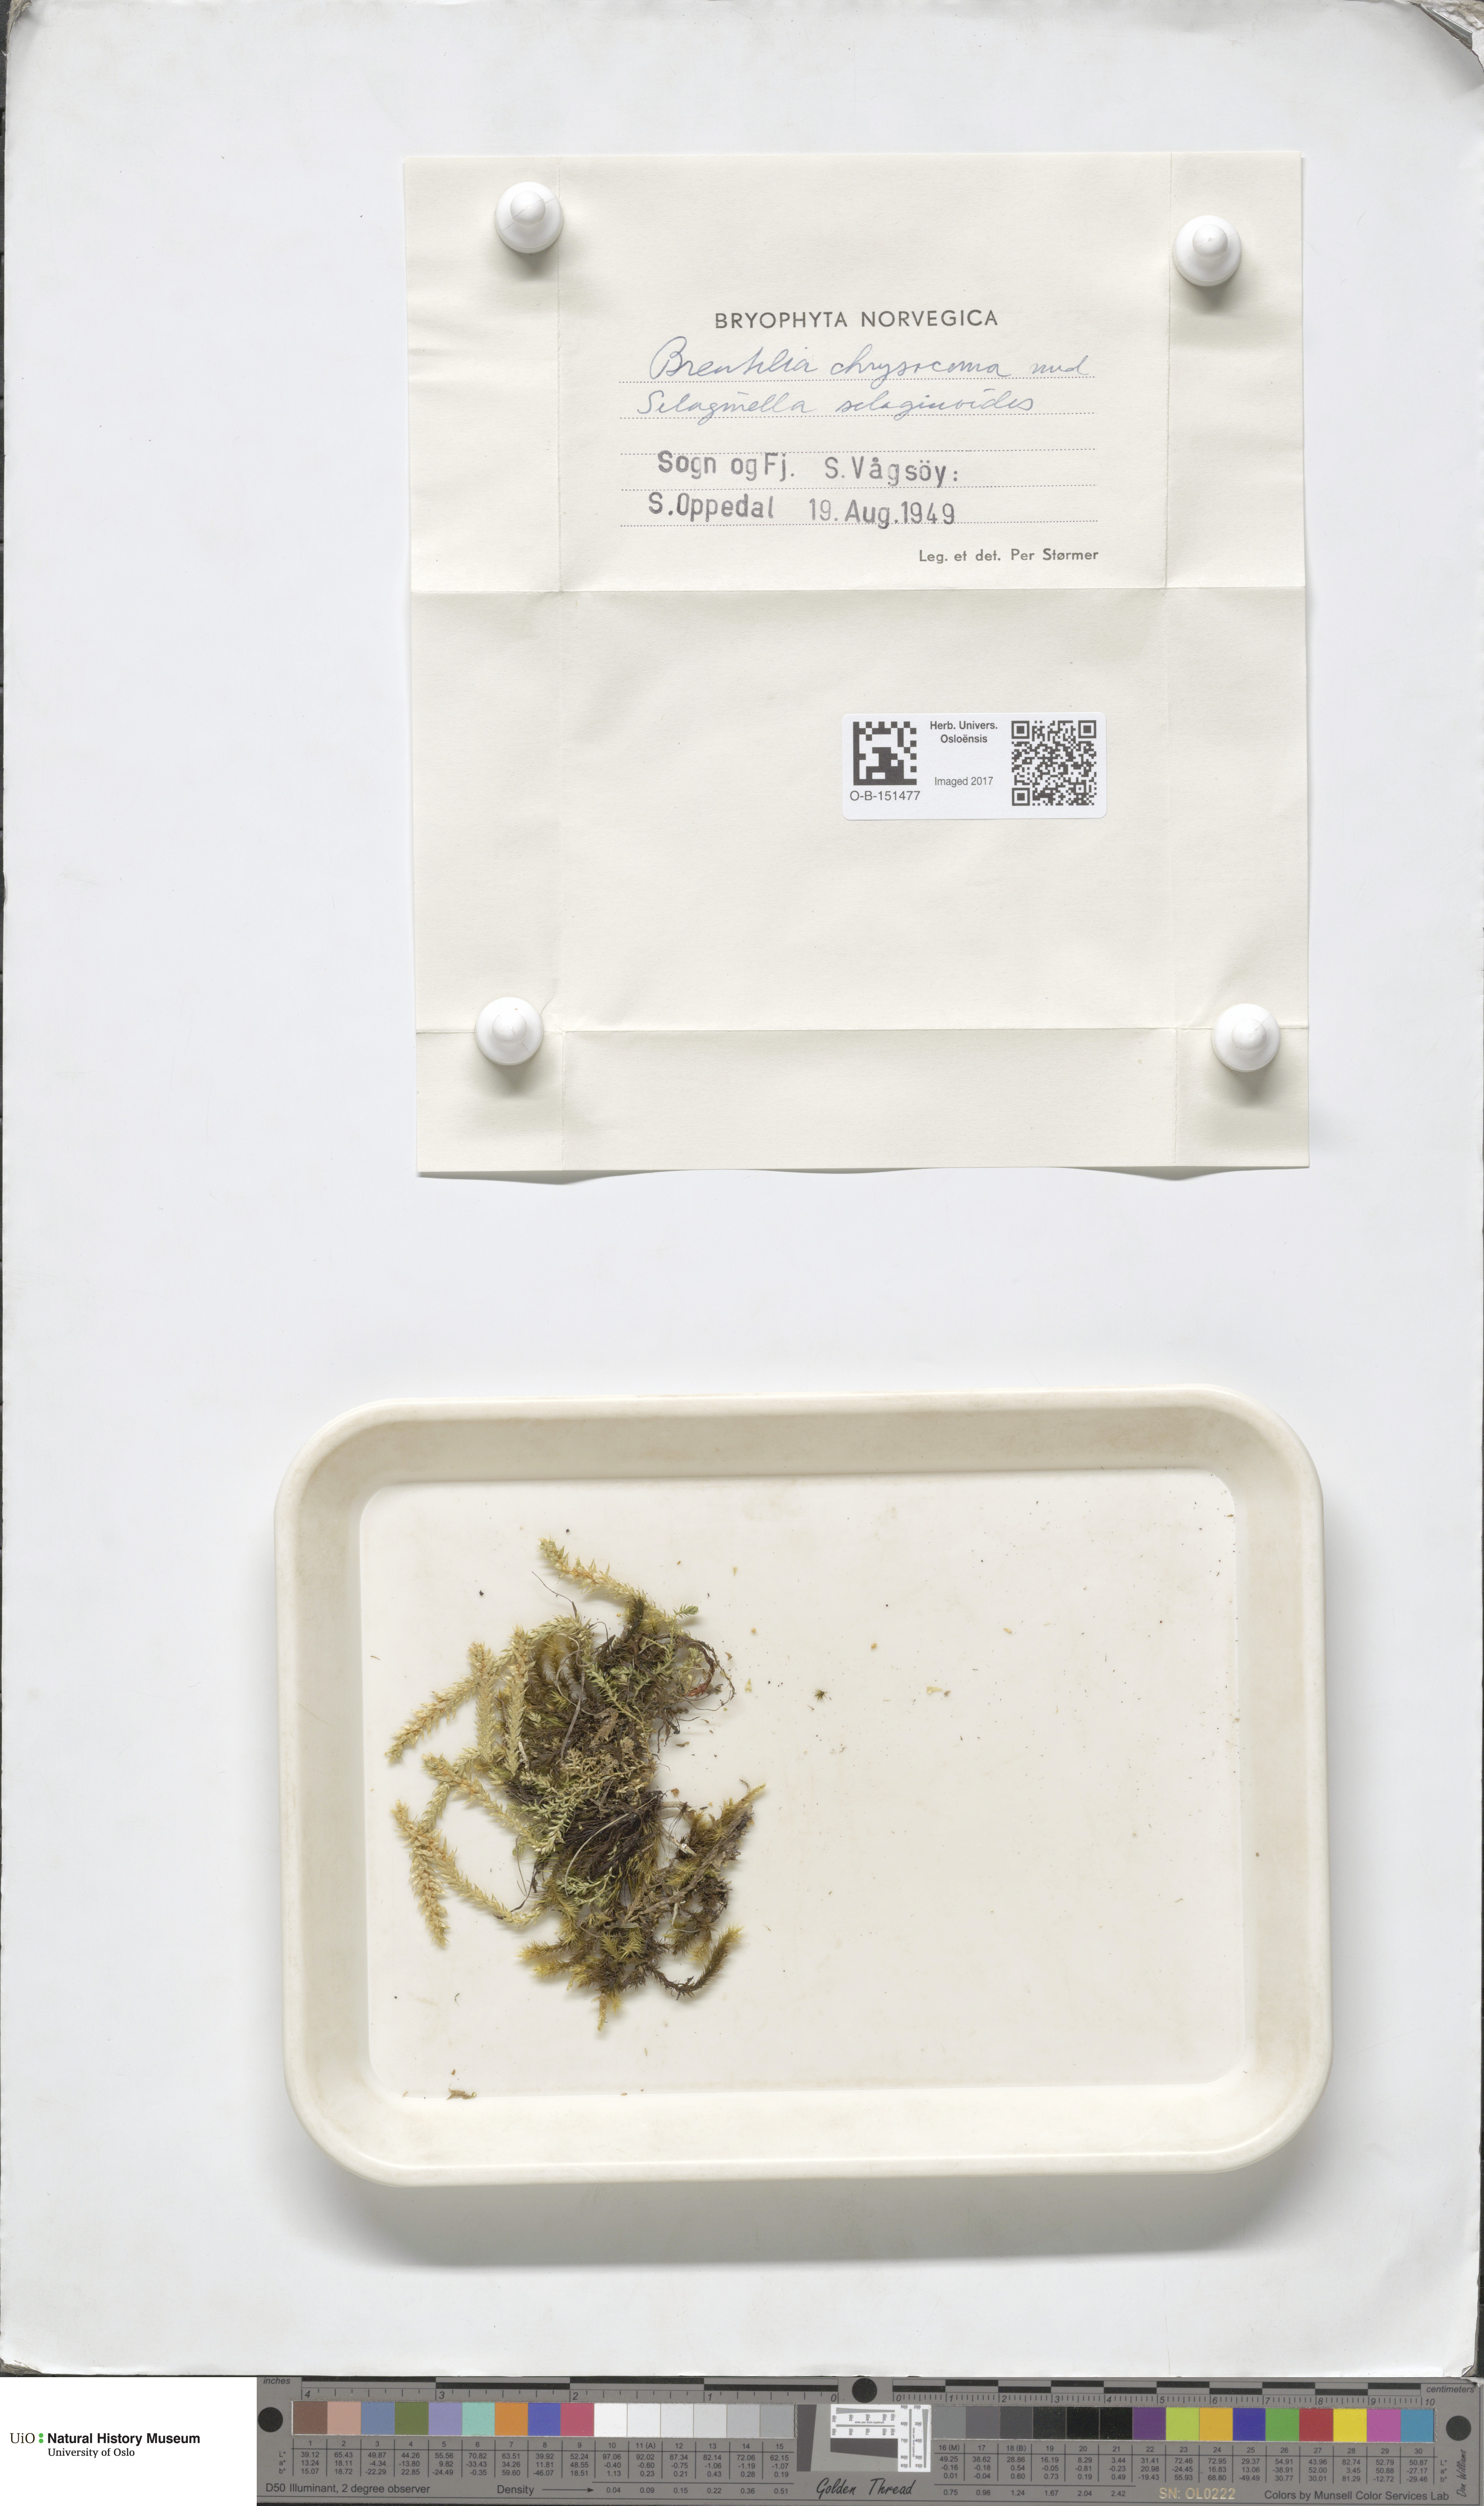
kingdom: Plantae
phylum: Bryophyta
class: Bryopsida
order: Bartramiales
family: Bartramiaceae
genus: Breutelia
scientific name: Breutelia chrysocoma
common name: Bottle-brush moss
